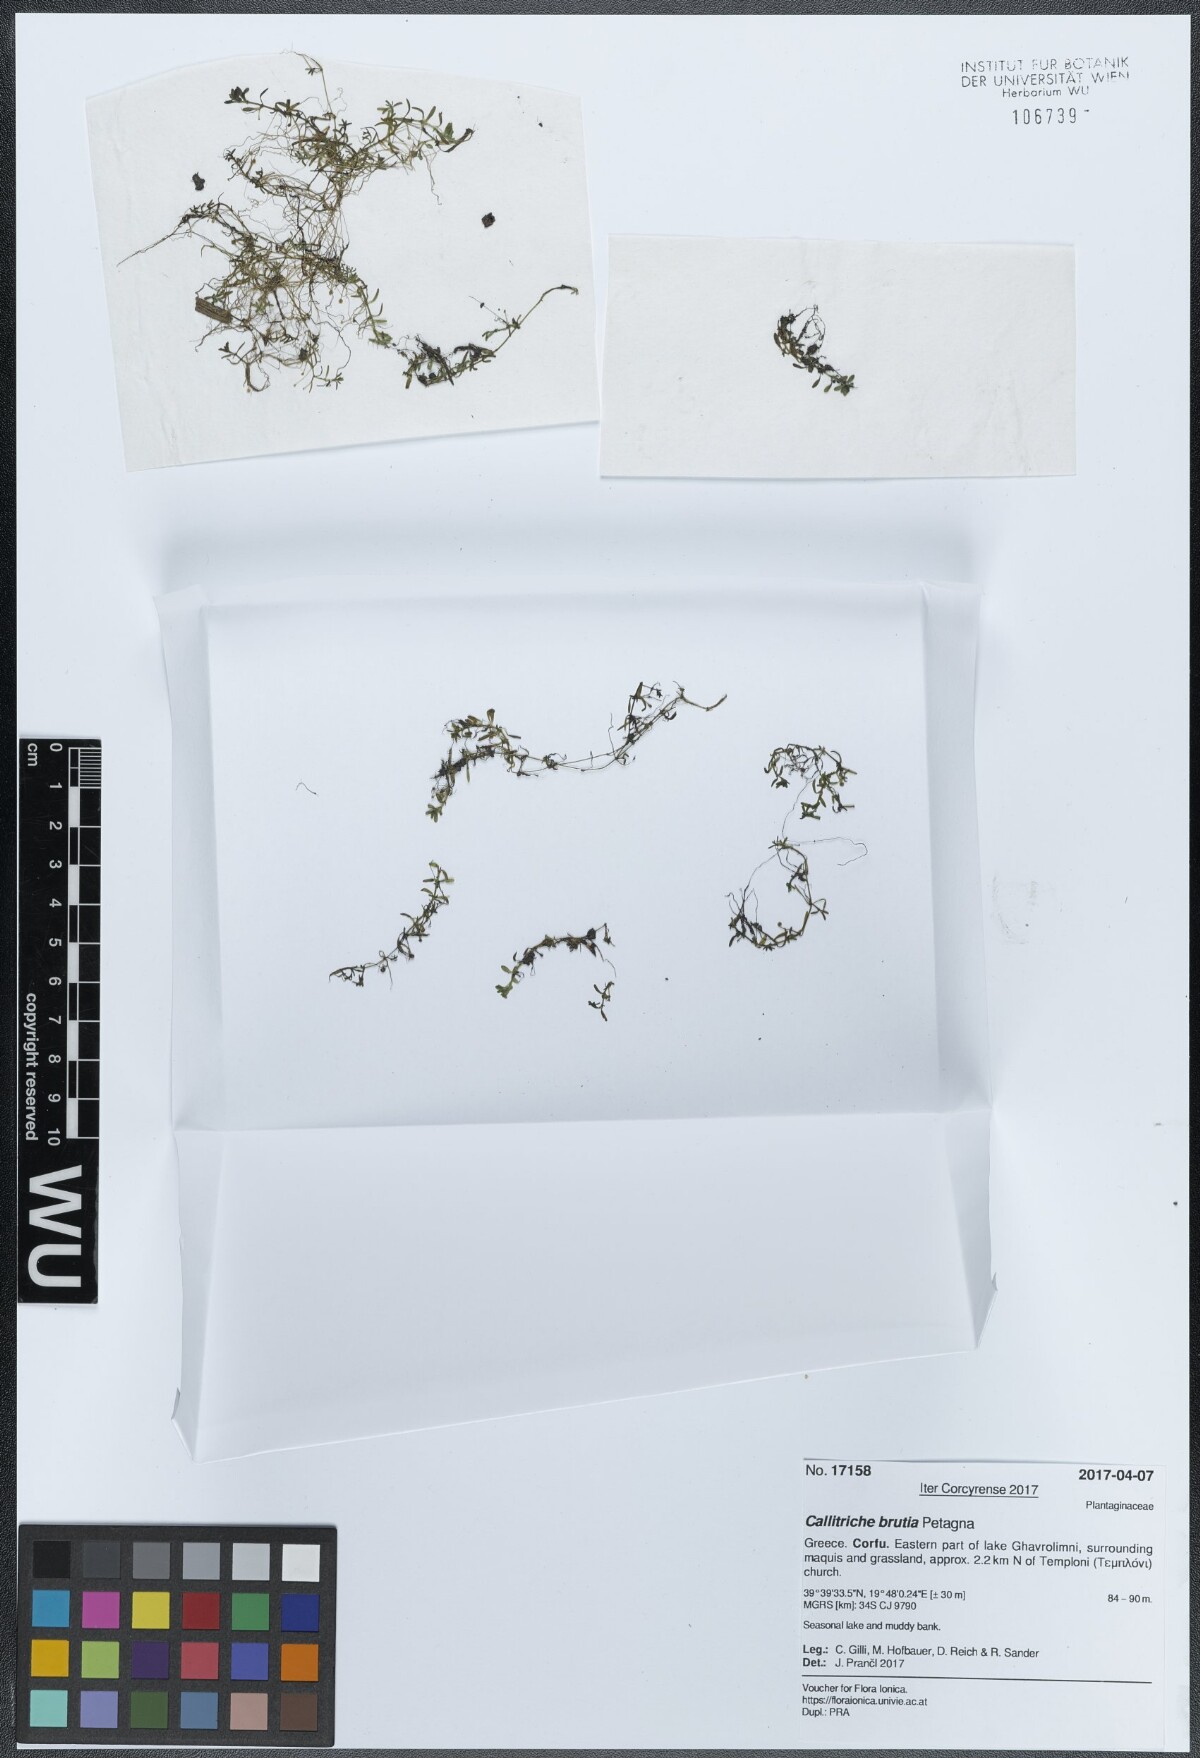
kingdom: Plantae
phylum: Tracheophyta
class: Magnoliopsida
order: Lamiales
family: Plantaginaceae
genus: Callitriche
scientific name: Callitriche brutia
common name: Pedunculate water-starwort
